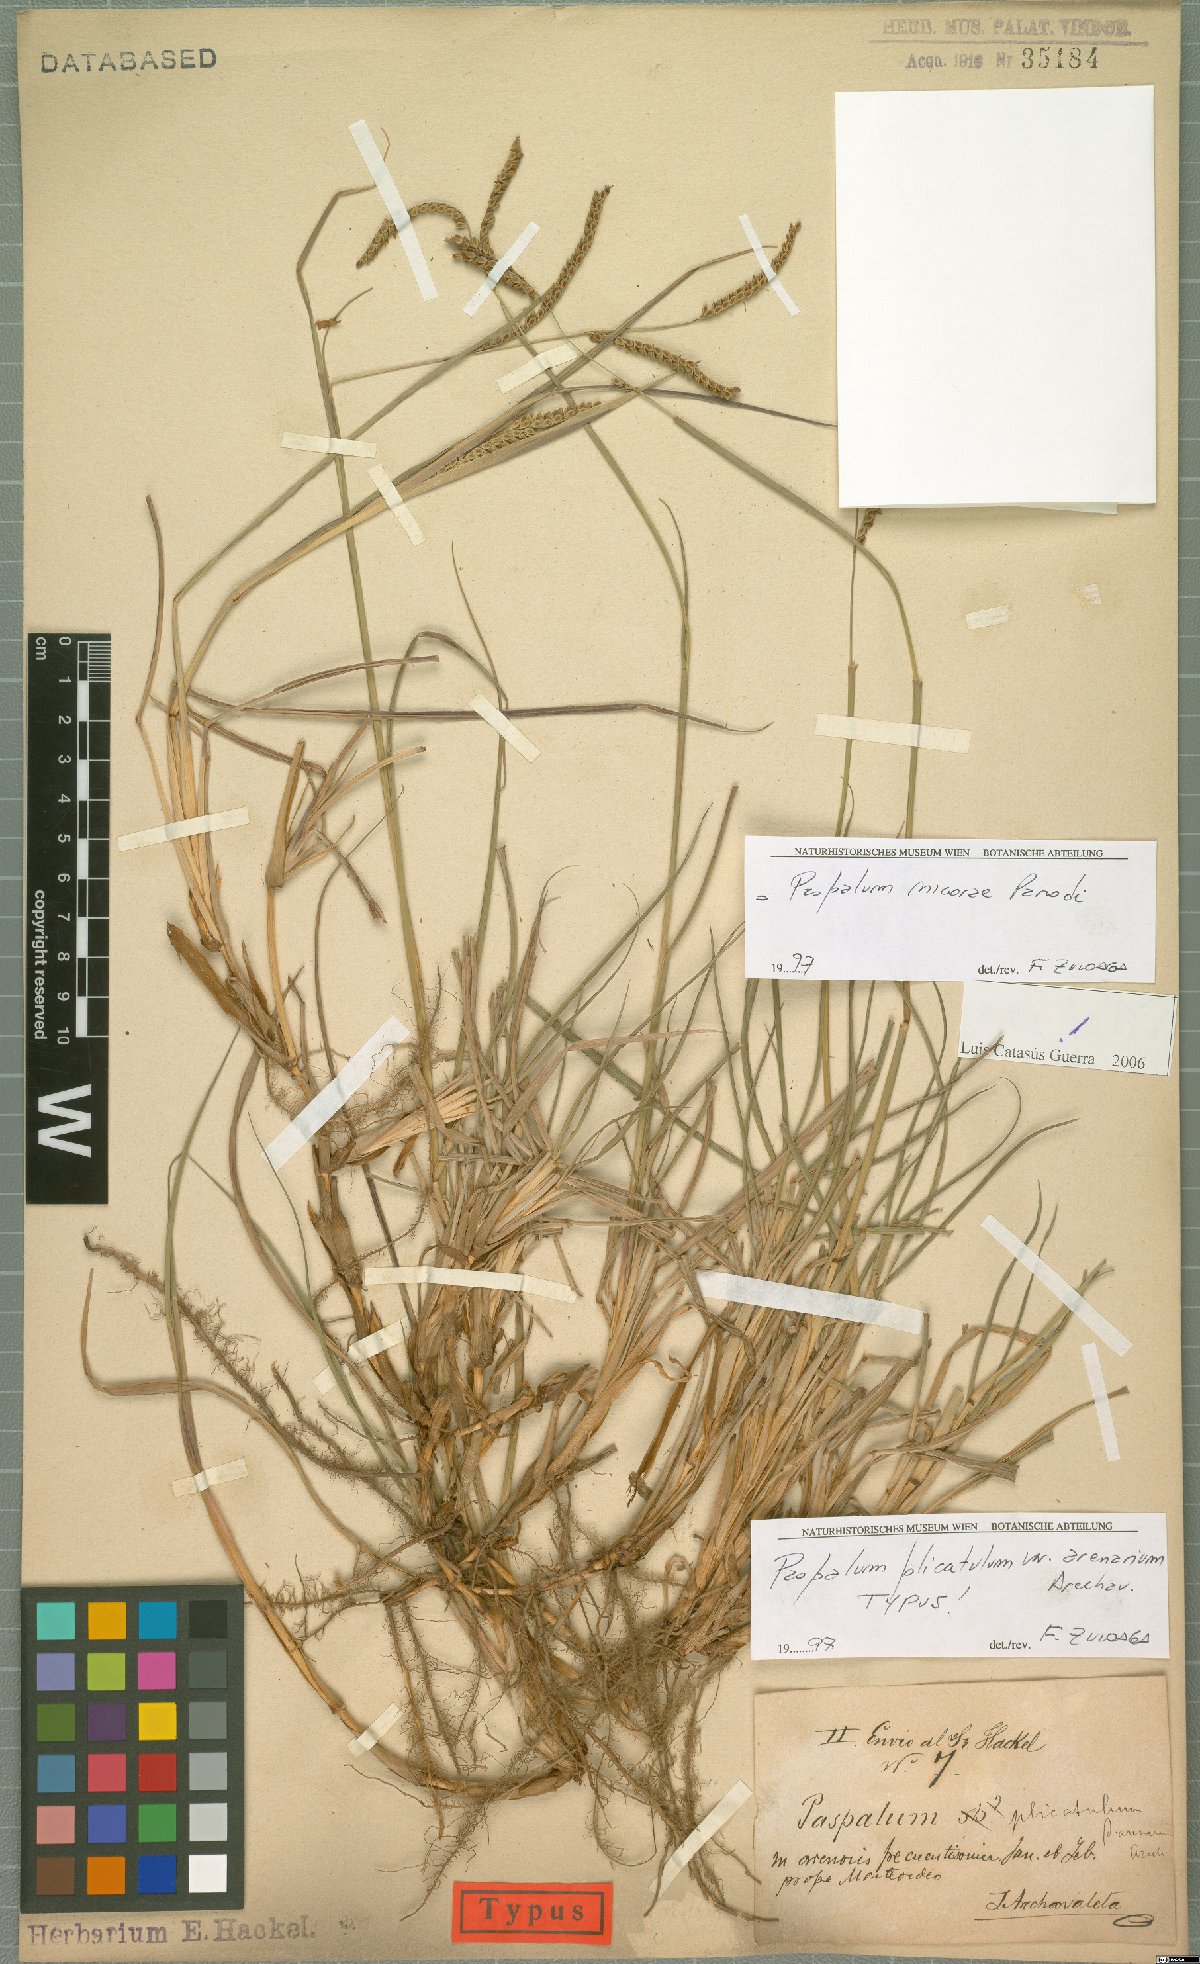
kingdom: Plantae
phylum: Tracheophyta
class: Liliopsida
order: Poales
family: Poaceae
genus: Paspalum
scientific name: Paspalum lepton
